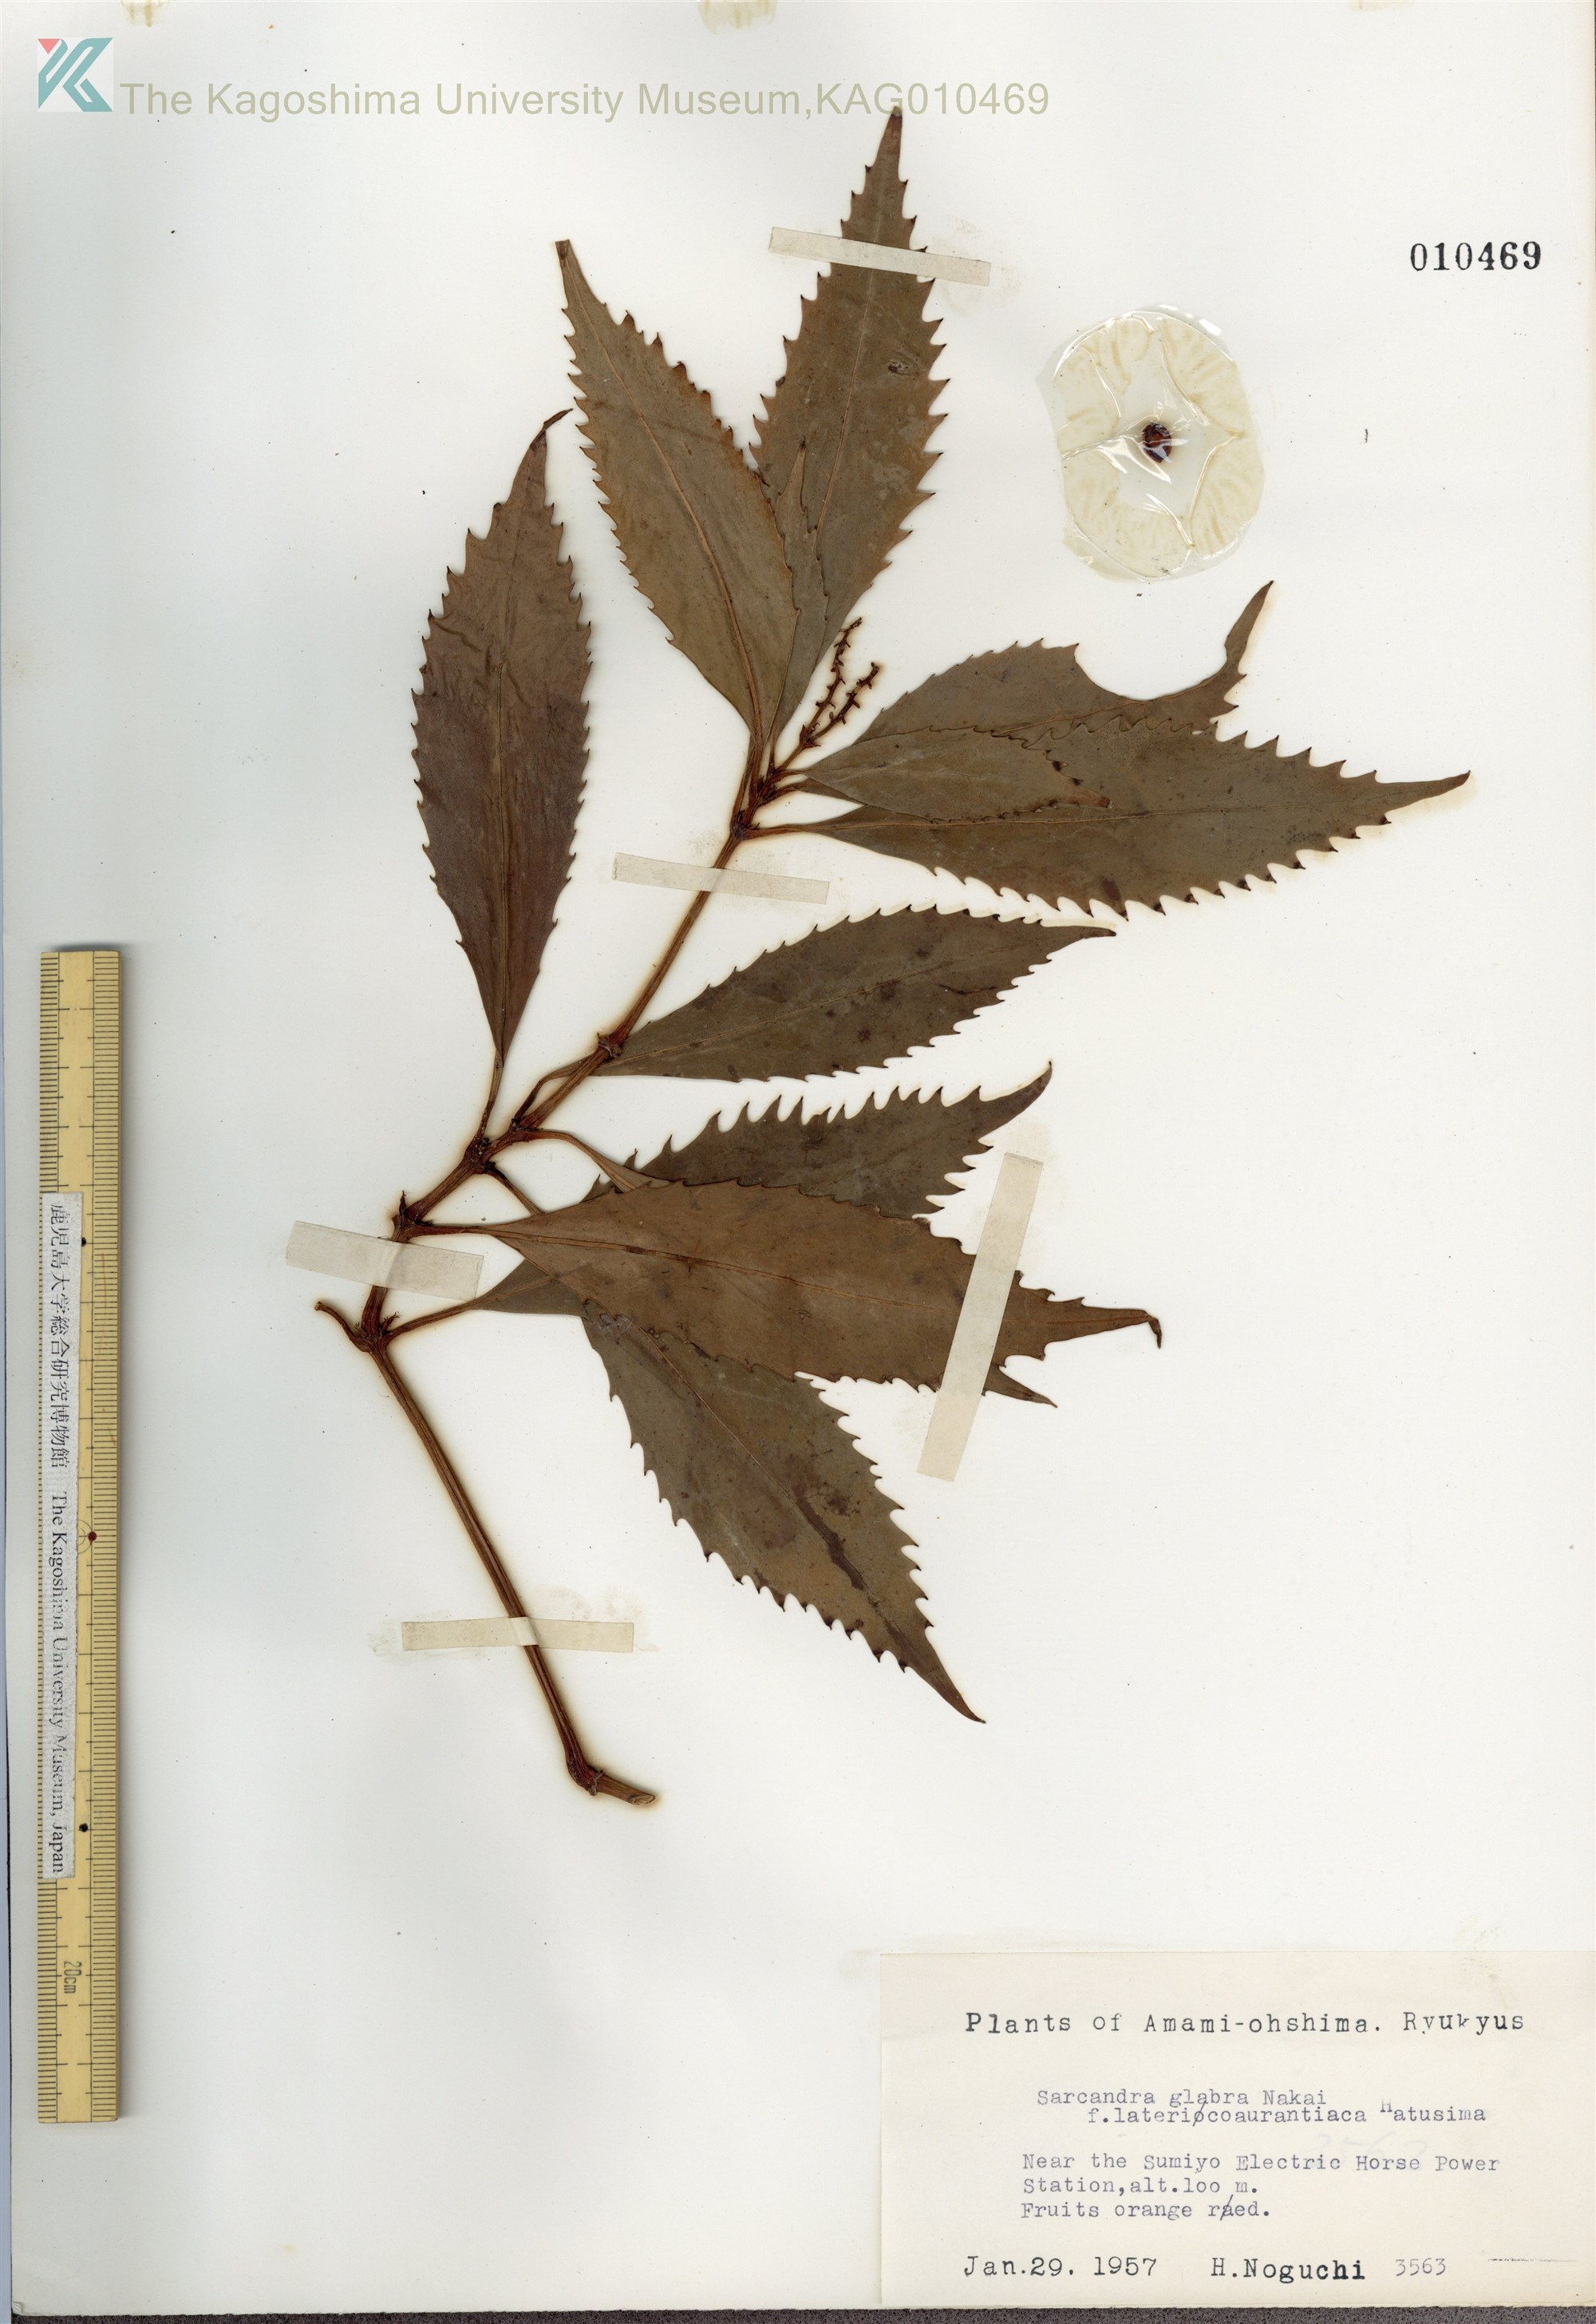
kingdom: Plantae
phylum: Tracheophyta
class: Magnoliopsida
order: Chloranthales
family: Chloranthaceae
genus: Sarcandra
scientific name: Sarcandra glabra
